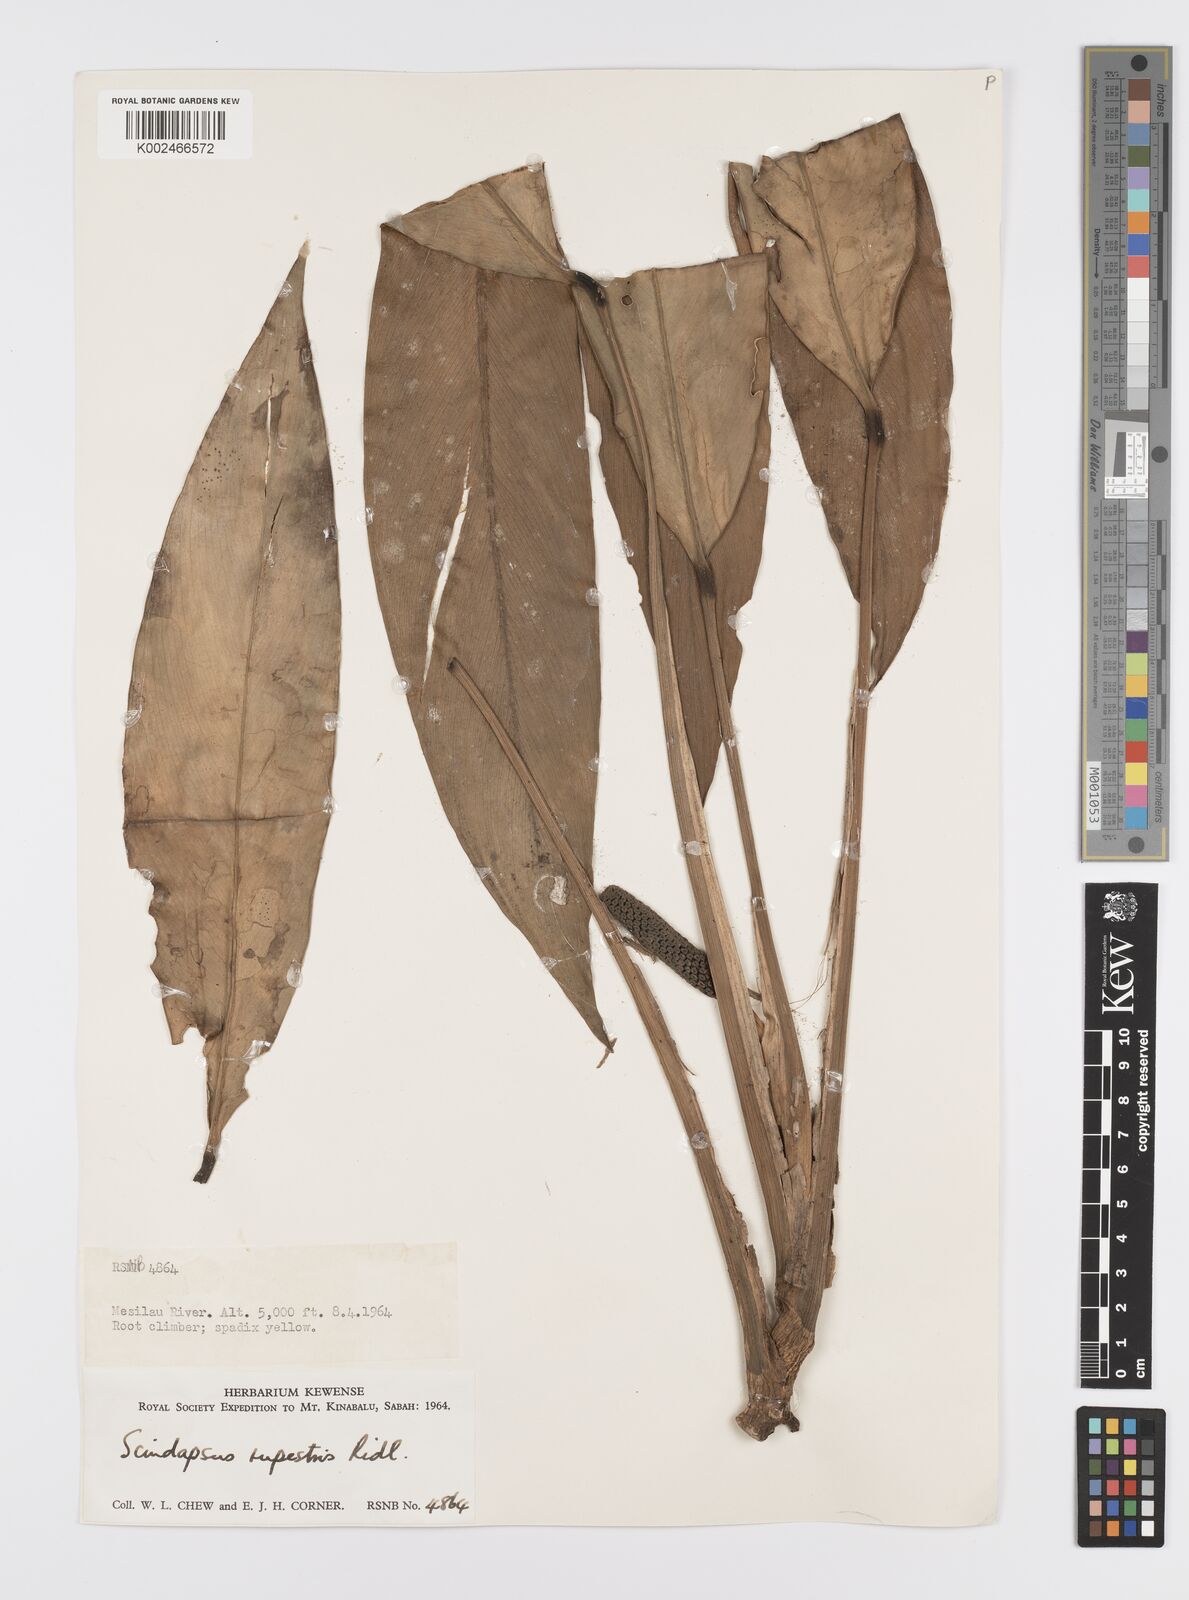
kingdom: Plantae
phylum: Tracheophyta
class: Liliopsida
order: Alismatales
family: Araceae
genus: Scindapsus
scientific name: Scindapsus coriaceus
